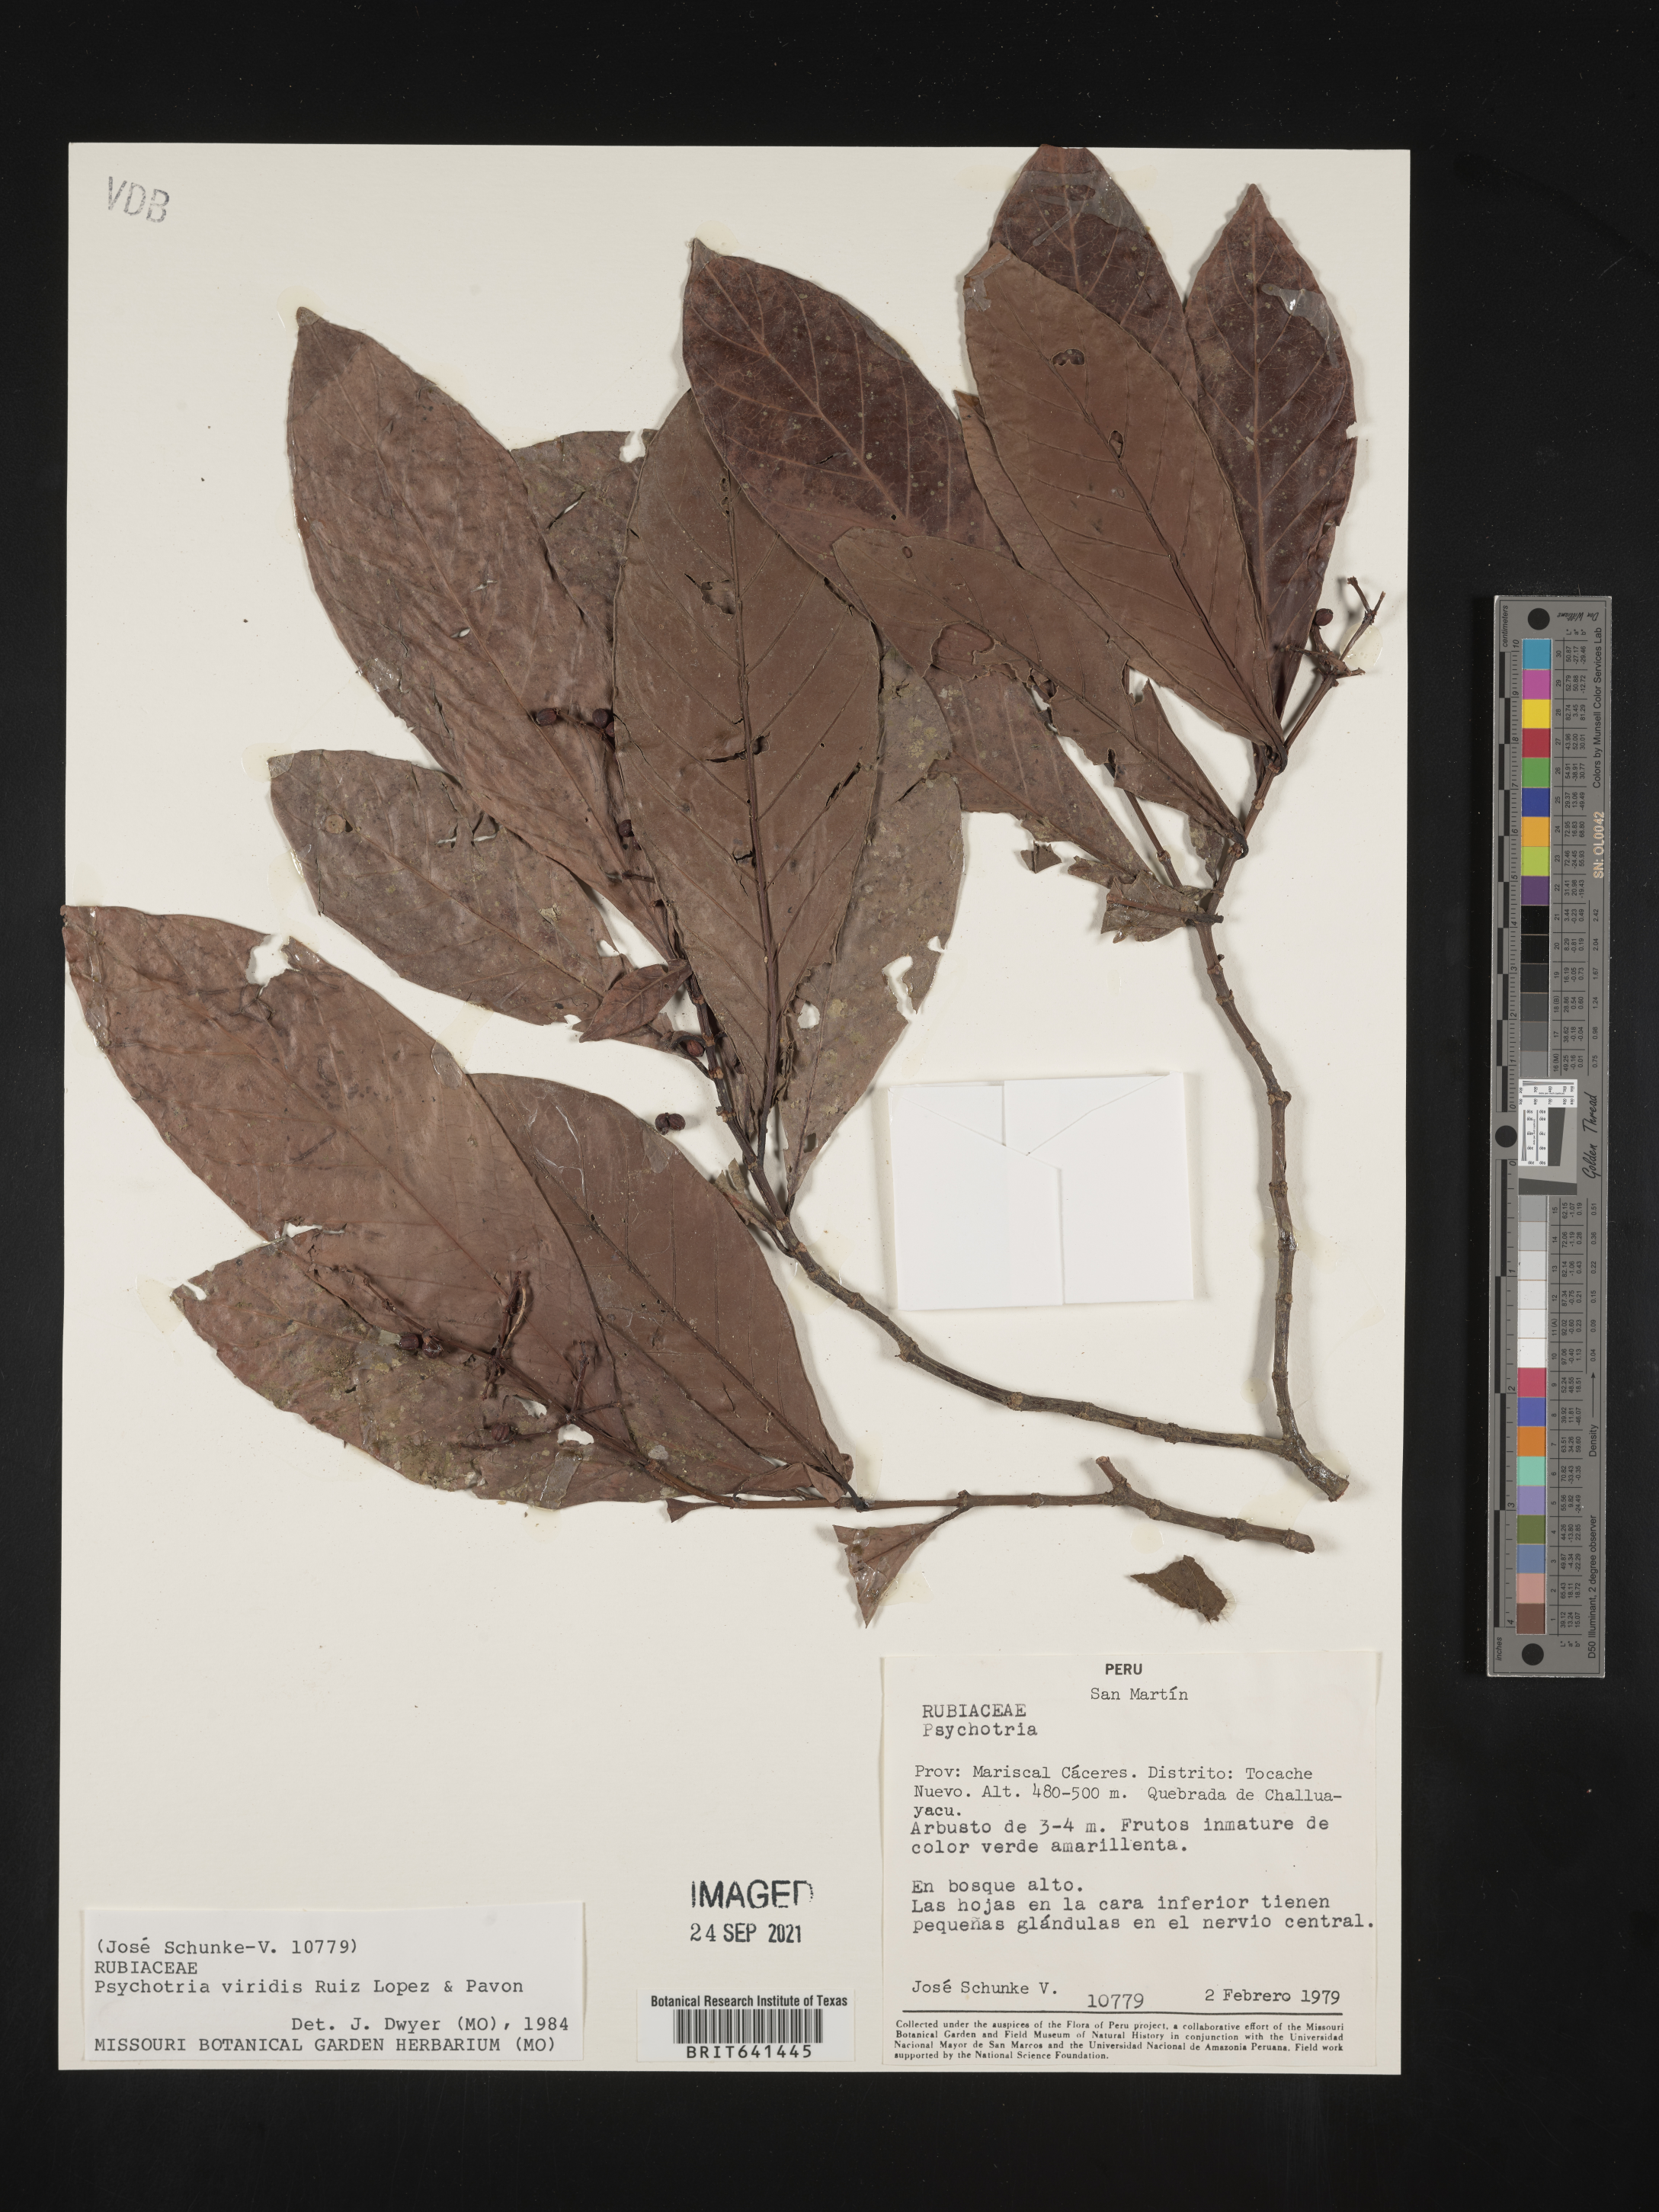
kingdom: Plantae
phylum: Tracheophyta
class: Magnoliopsida
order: Gentianales
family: Rubiaceae
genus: Psychotria
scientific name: Psychotria
